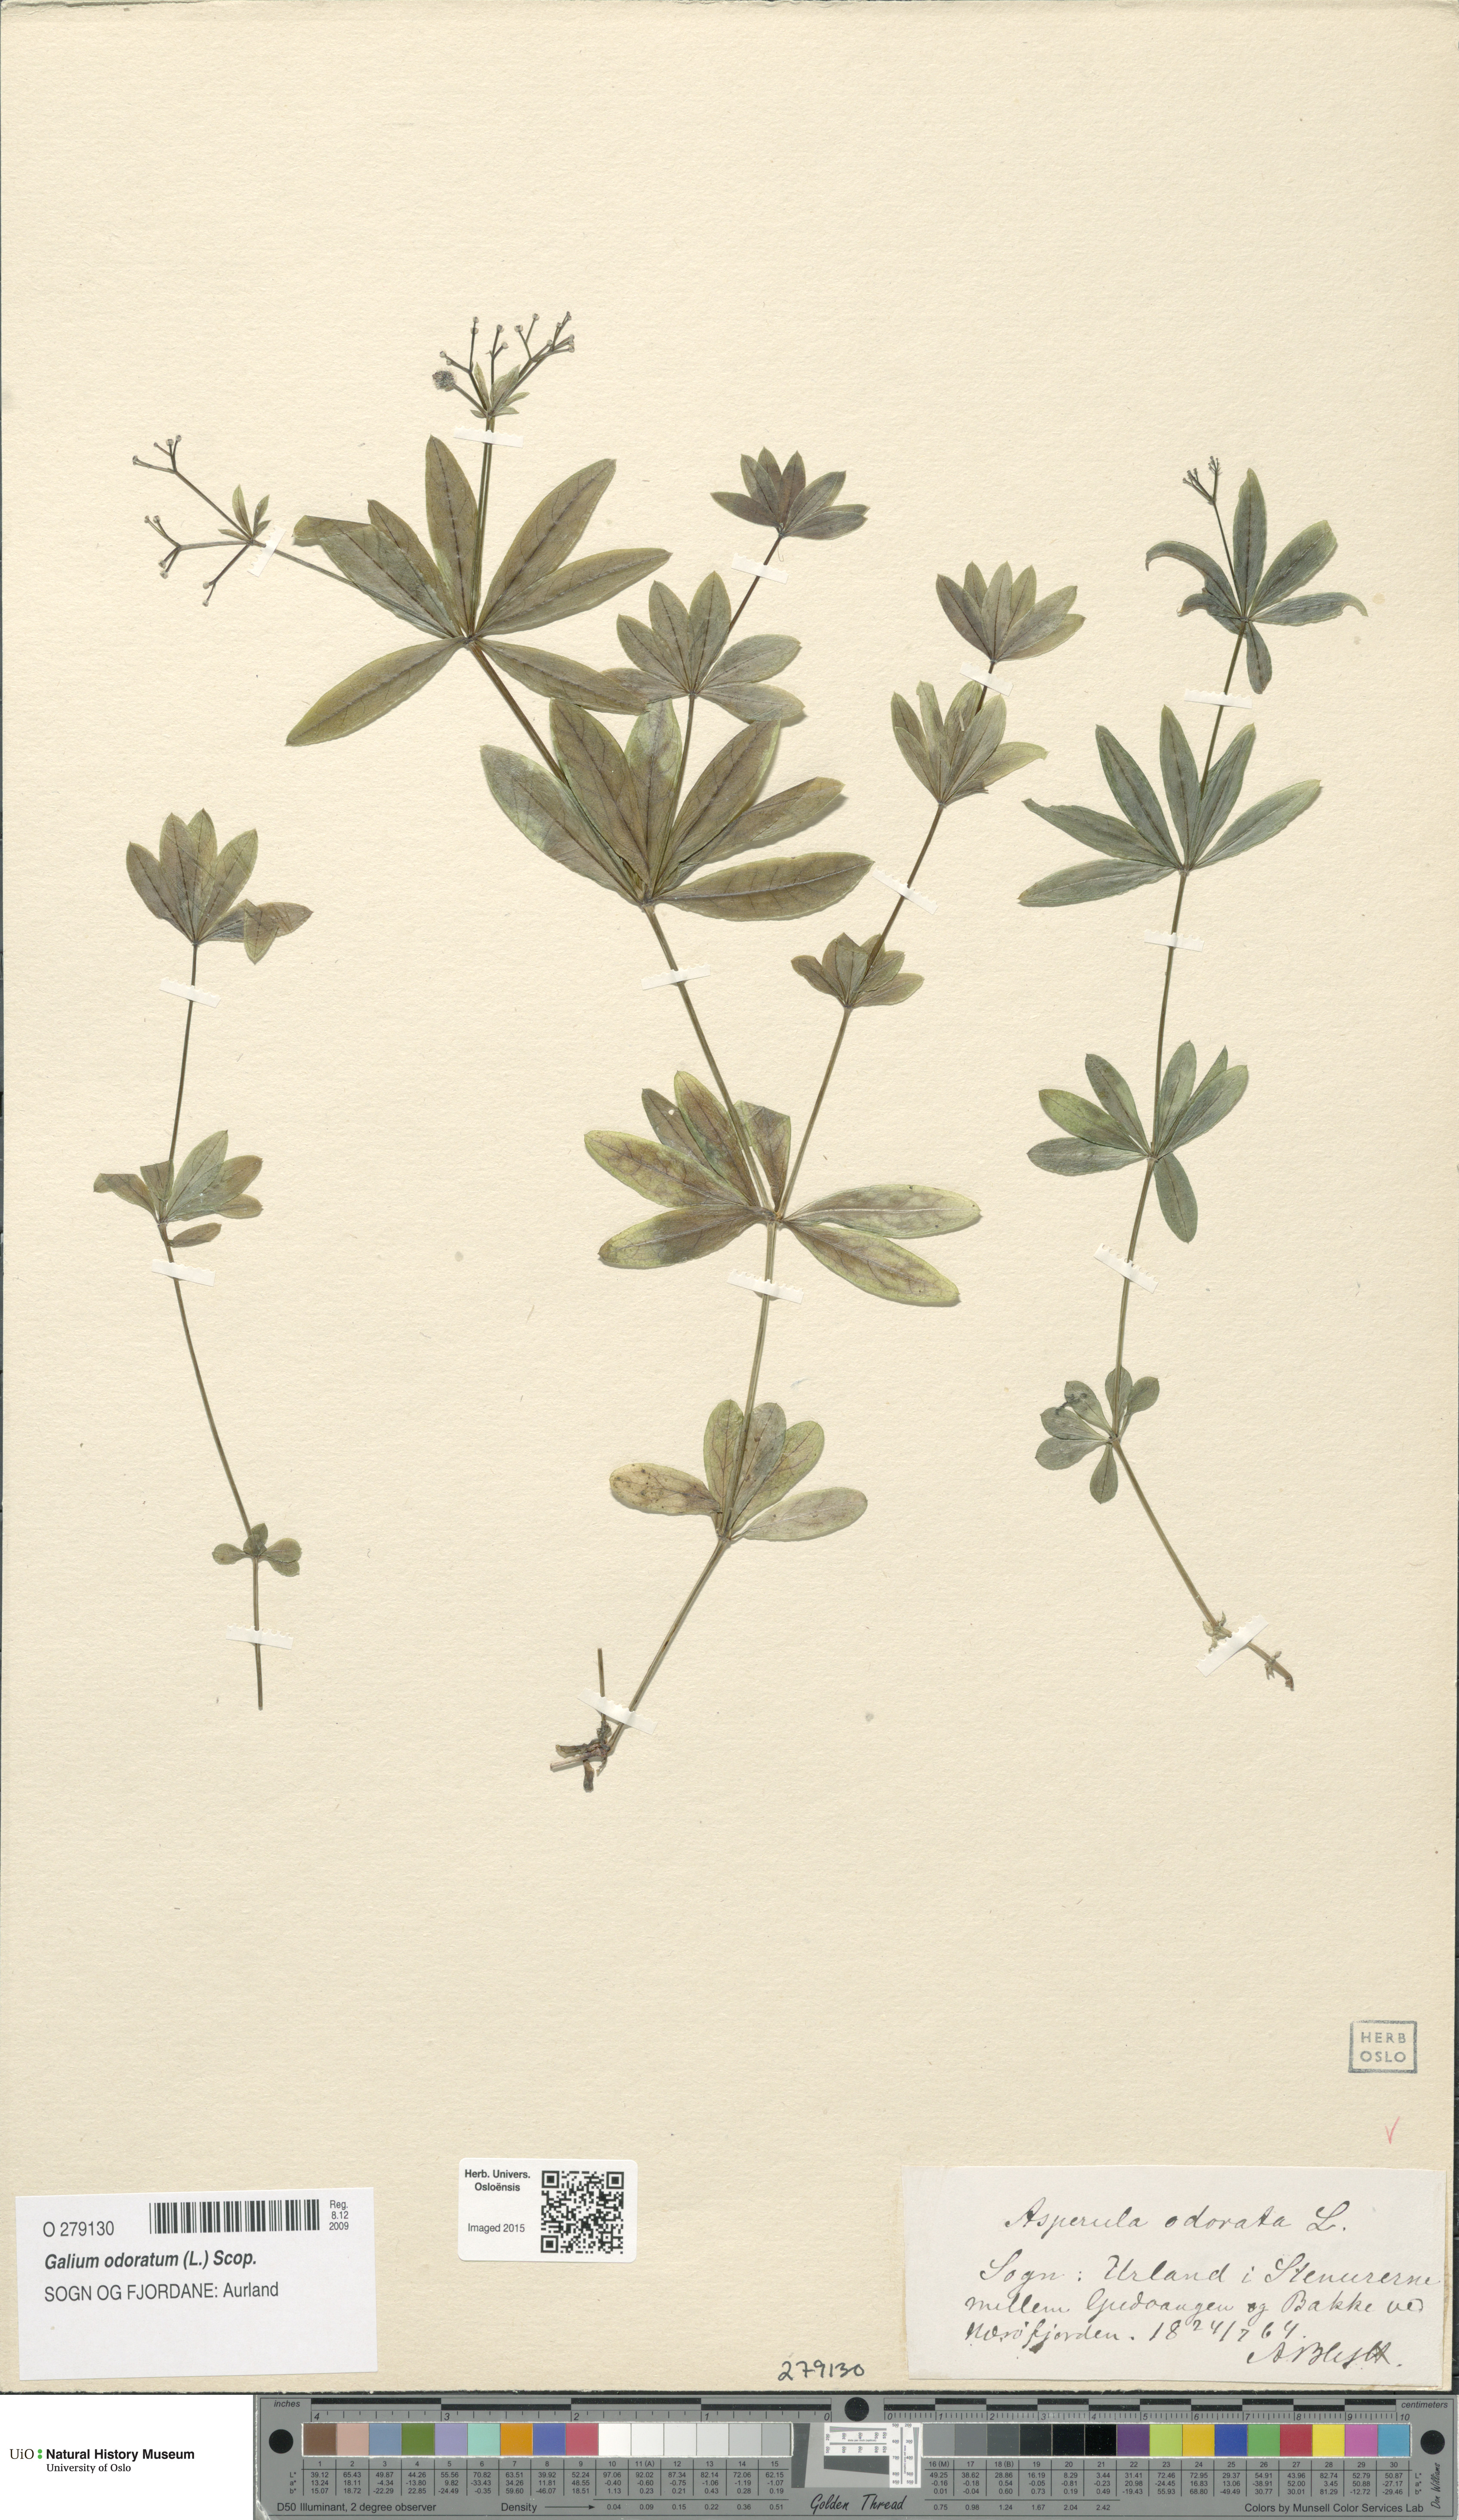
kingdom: Plantae
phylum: Tracheophyta
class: Magnoliopsida
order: Gentianales
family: Rubiaceae
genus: Galium
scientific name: Galium odoratum
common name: Sweet woodruff
